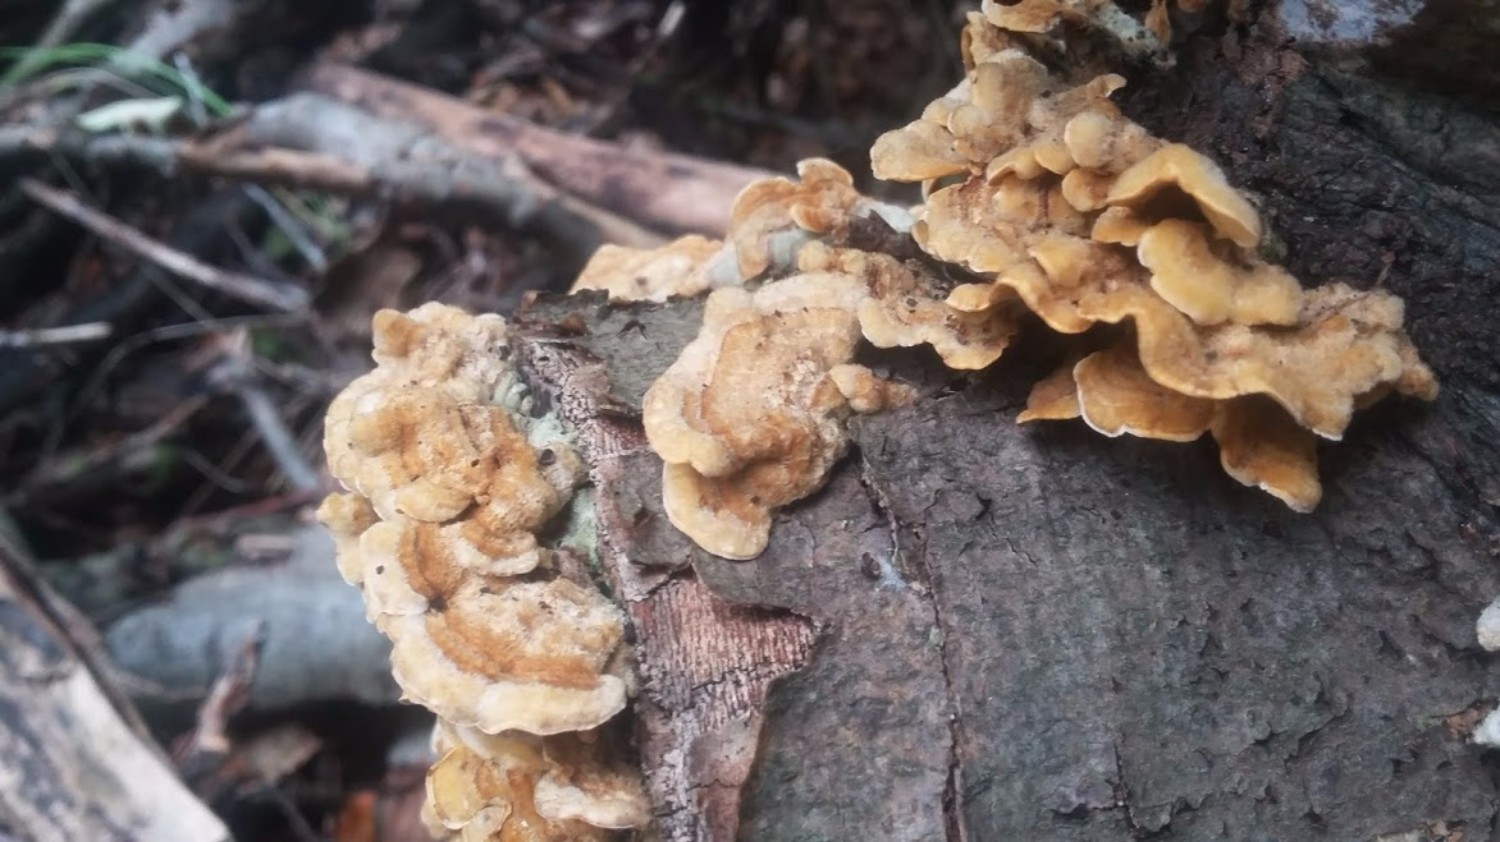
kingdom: Fungi
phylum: Basidiomycota
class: Agaricomycetes
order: Polyporales
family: Polyporaceae
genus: Trametes
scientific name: Trametes hirsuta
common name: håret læderporesvamp
